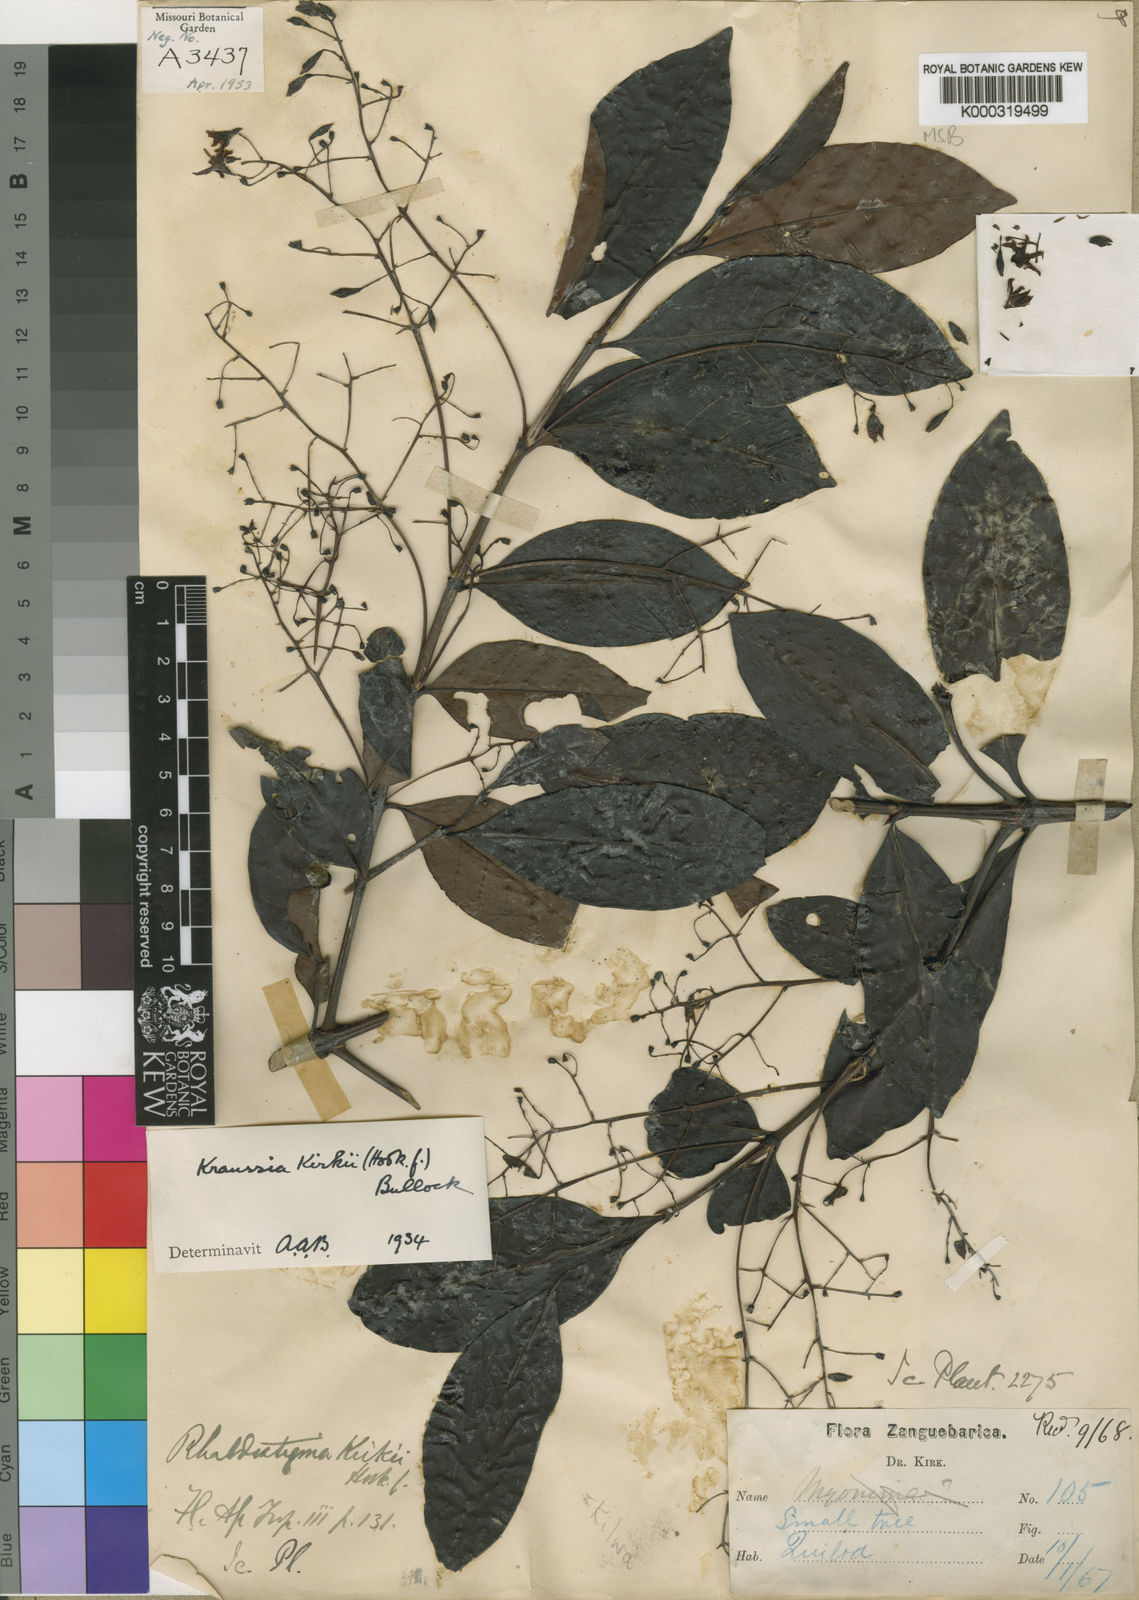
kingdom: Plantae
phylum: Tracheophyta
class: Magnoliopsida
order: Gentianales
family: Rubiaceae
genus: Kraussia
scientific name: Kraussia kirkii
